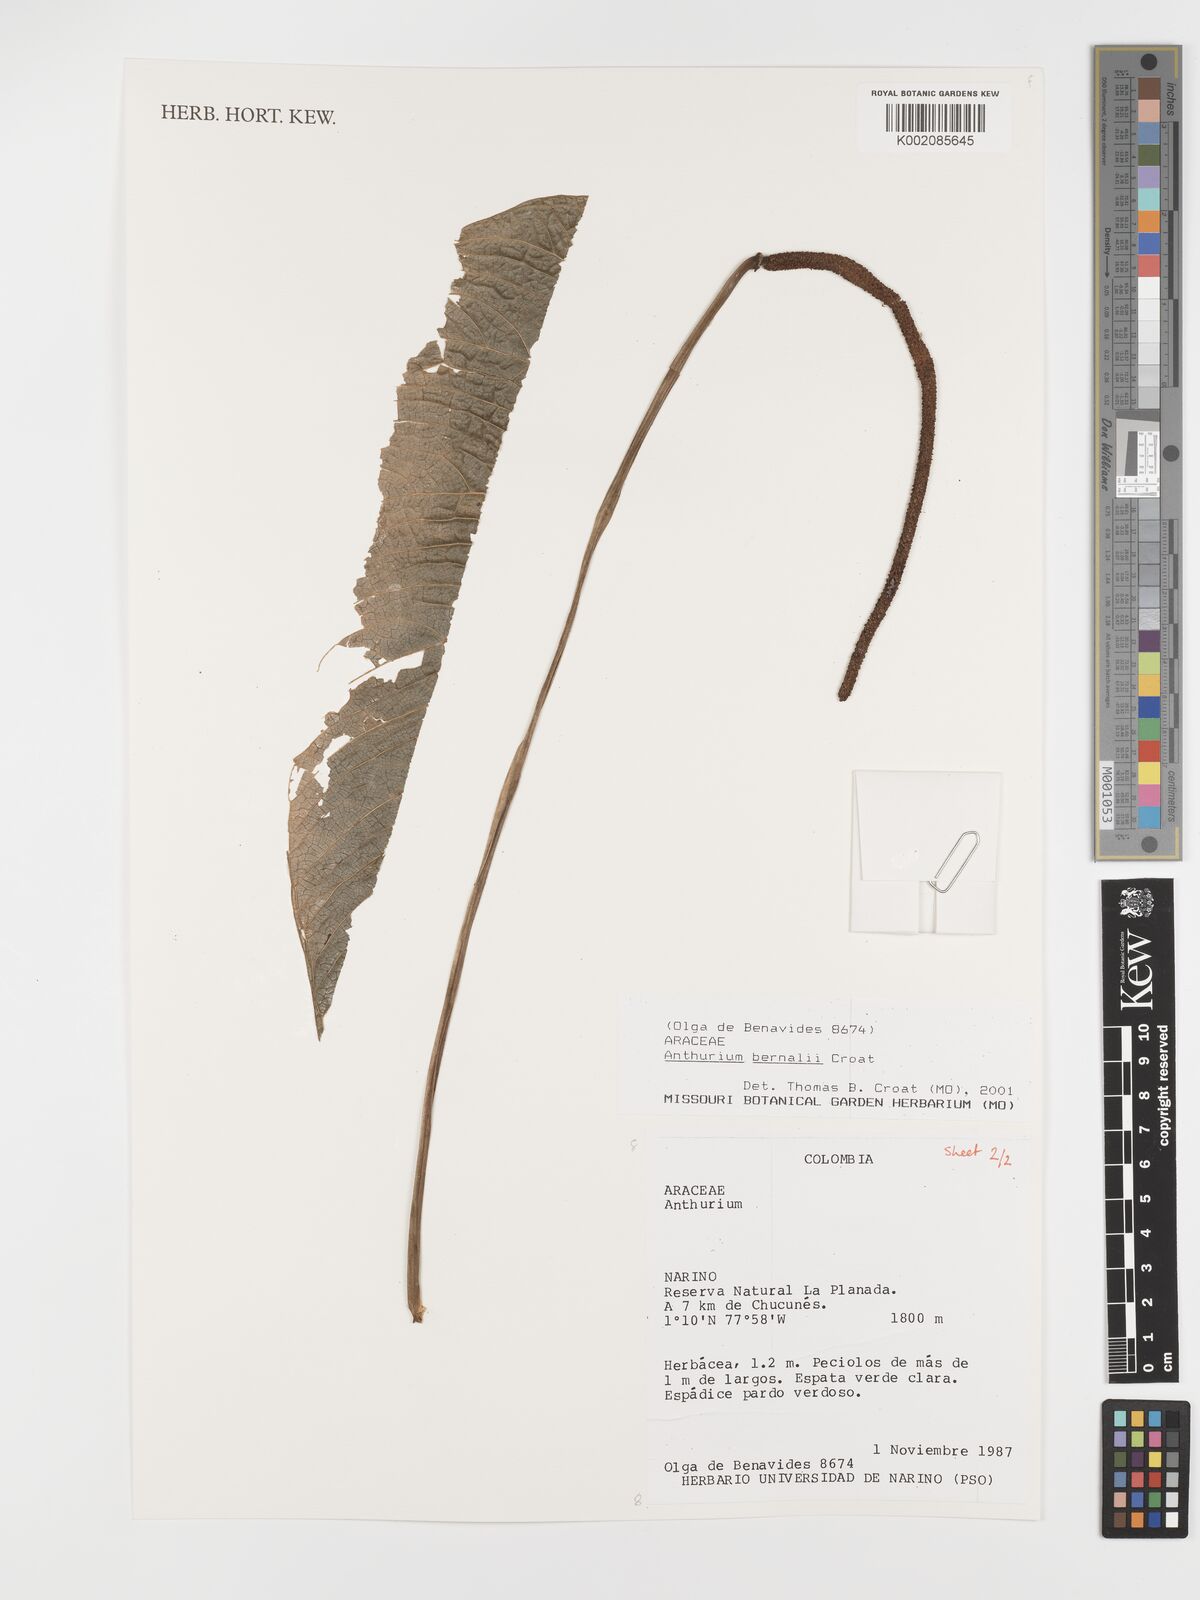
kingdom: Plantae
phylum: Tracheophyta
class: Liliopsida
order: Alismatales
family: Araceae
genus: Anthurium
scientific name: Anthurium bernalii
